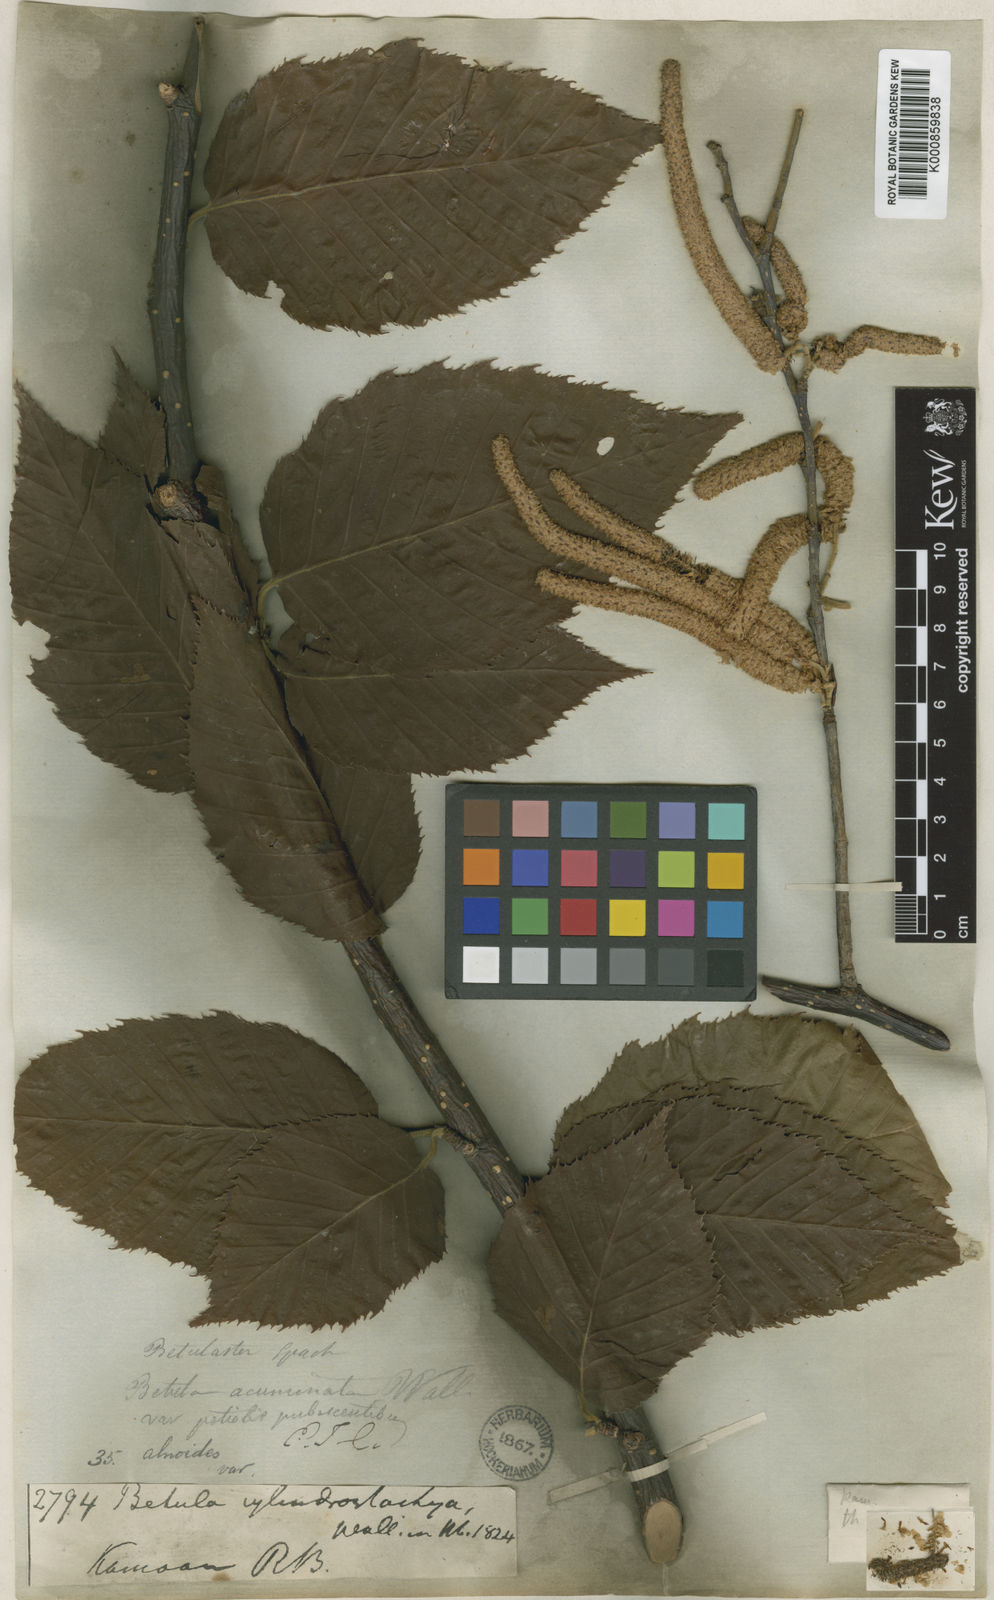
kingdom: Plantae
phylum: Tracheophyta
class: Magnoliopsida
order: Fagales
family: Betulaceae
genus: Betula
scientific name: Betula cylindrostachya
